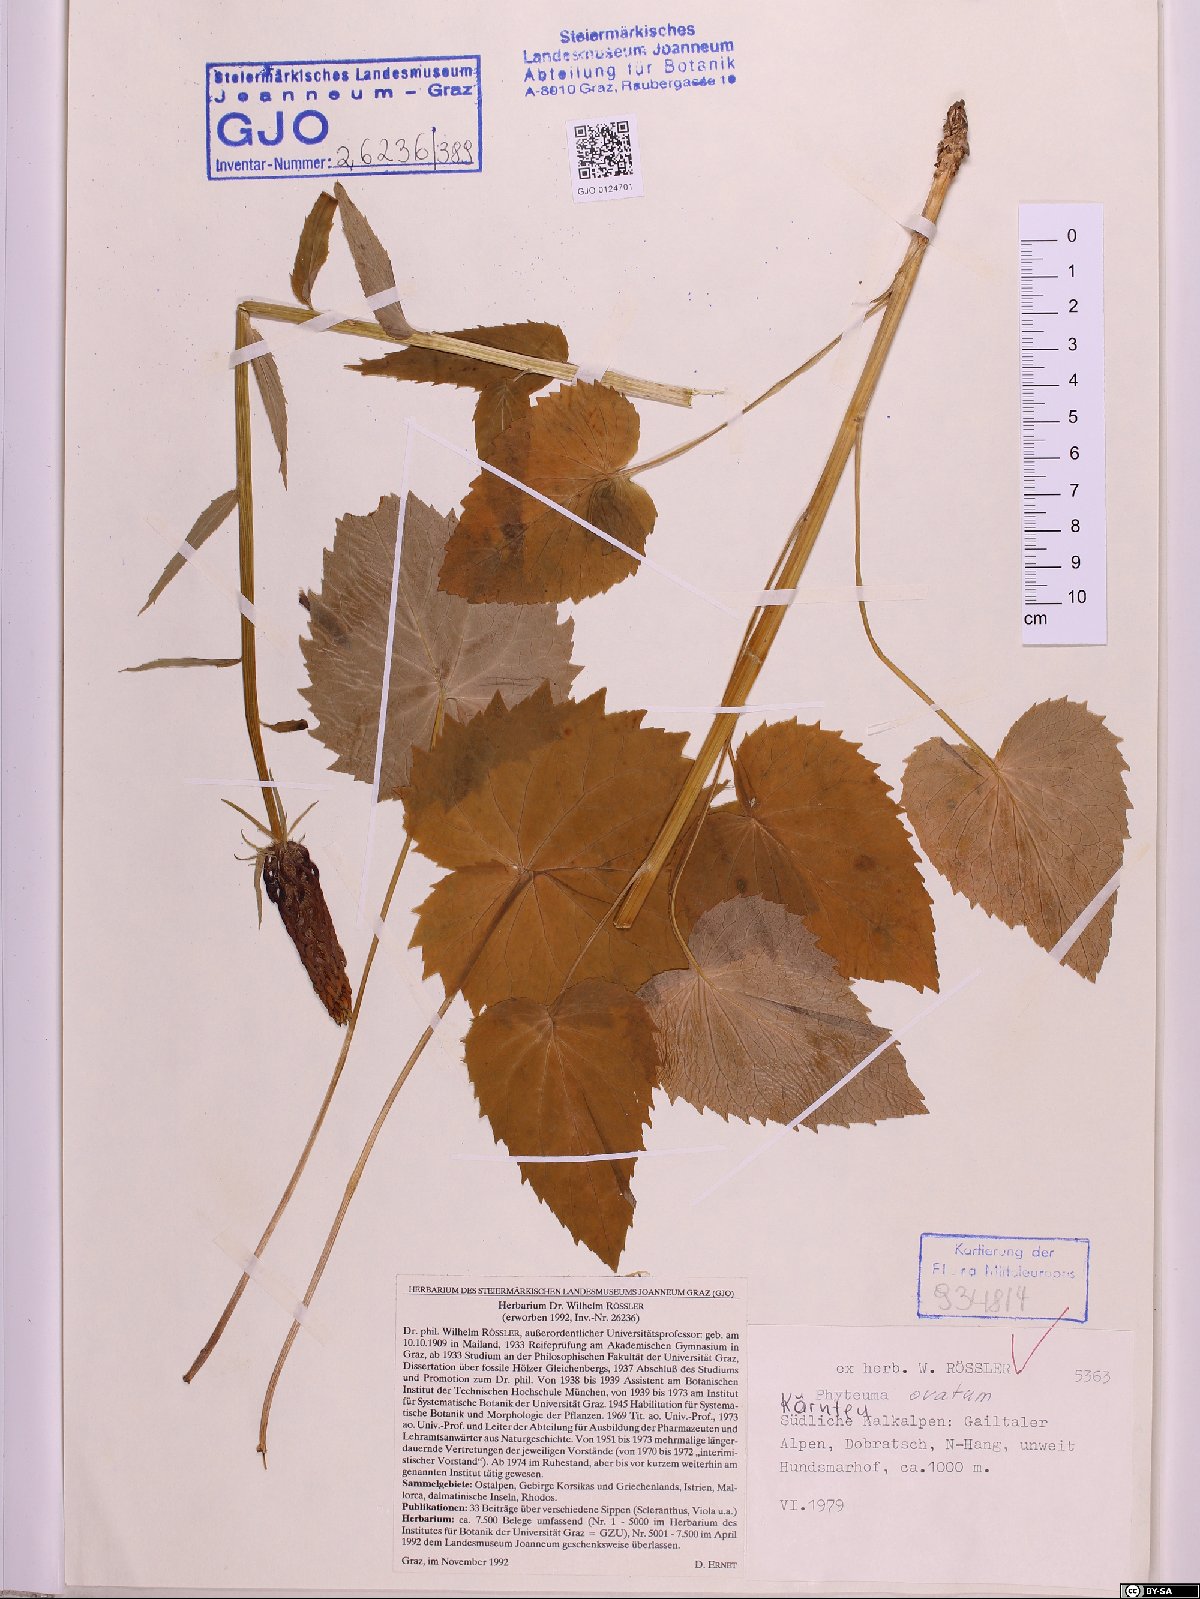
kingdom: Plantae
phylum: Tracheophyta
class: Magnoliopsida
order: Asterales
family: Campanulaceae
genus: Phyteuma
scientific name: Phyteuma ovatum
